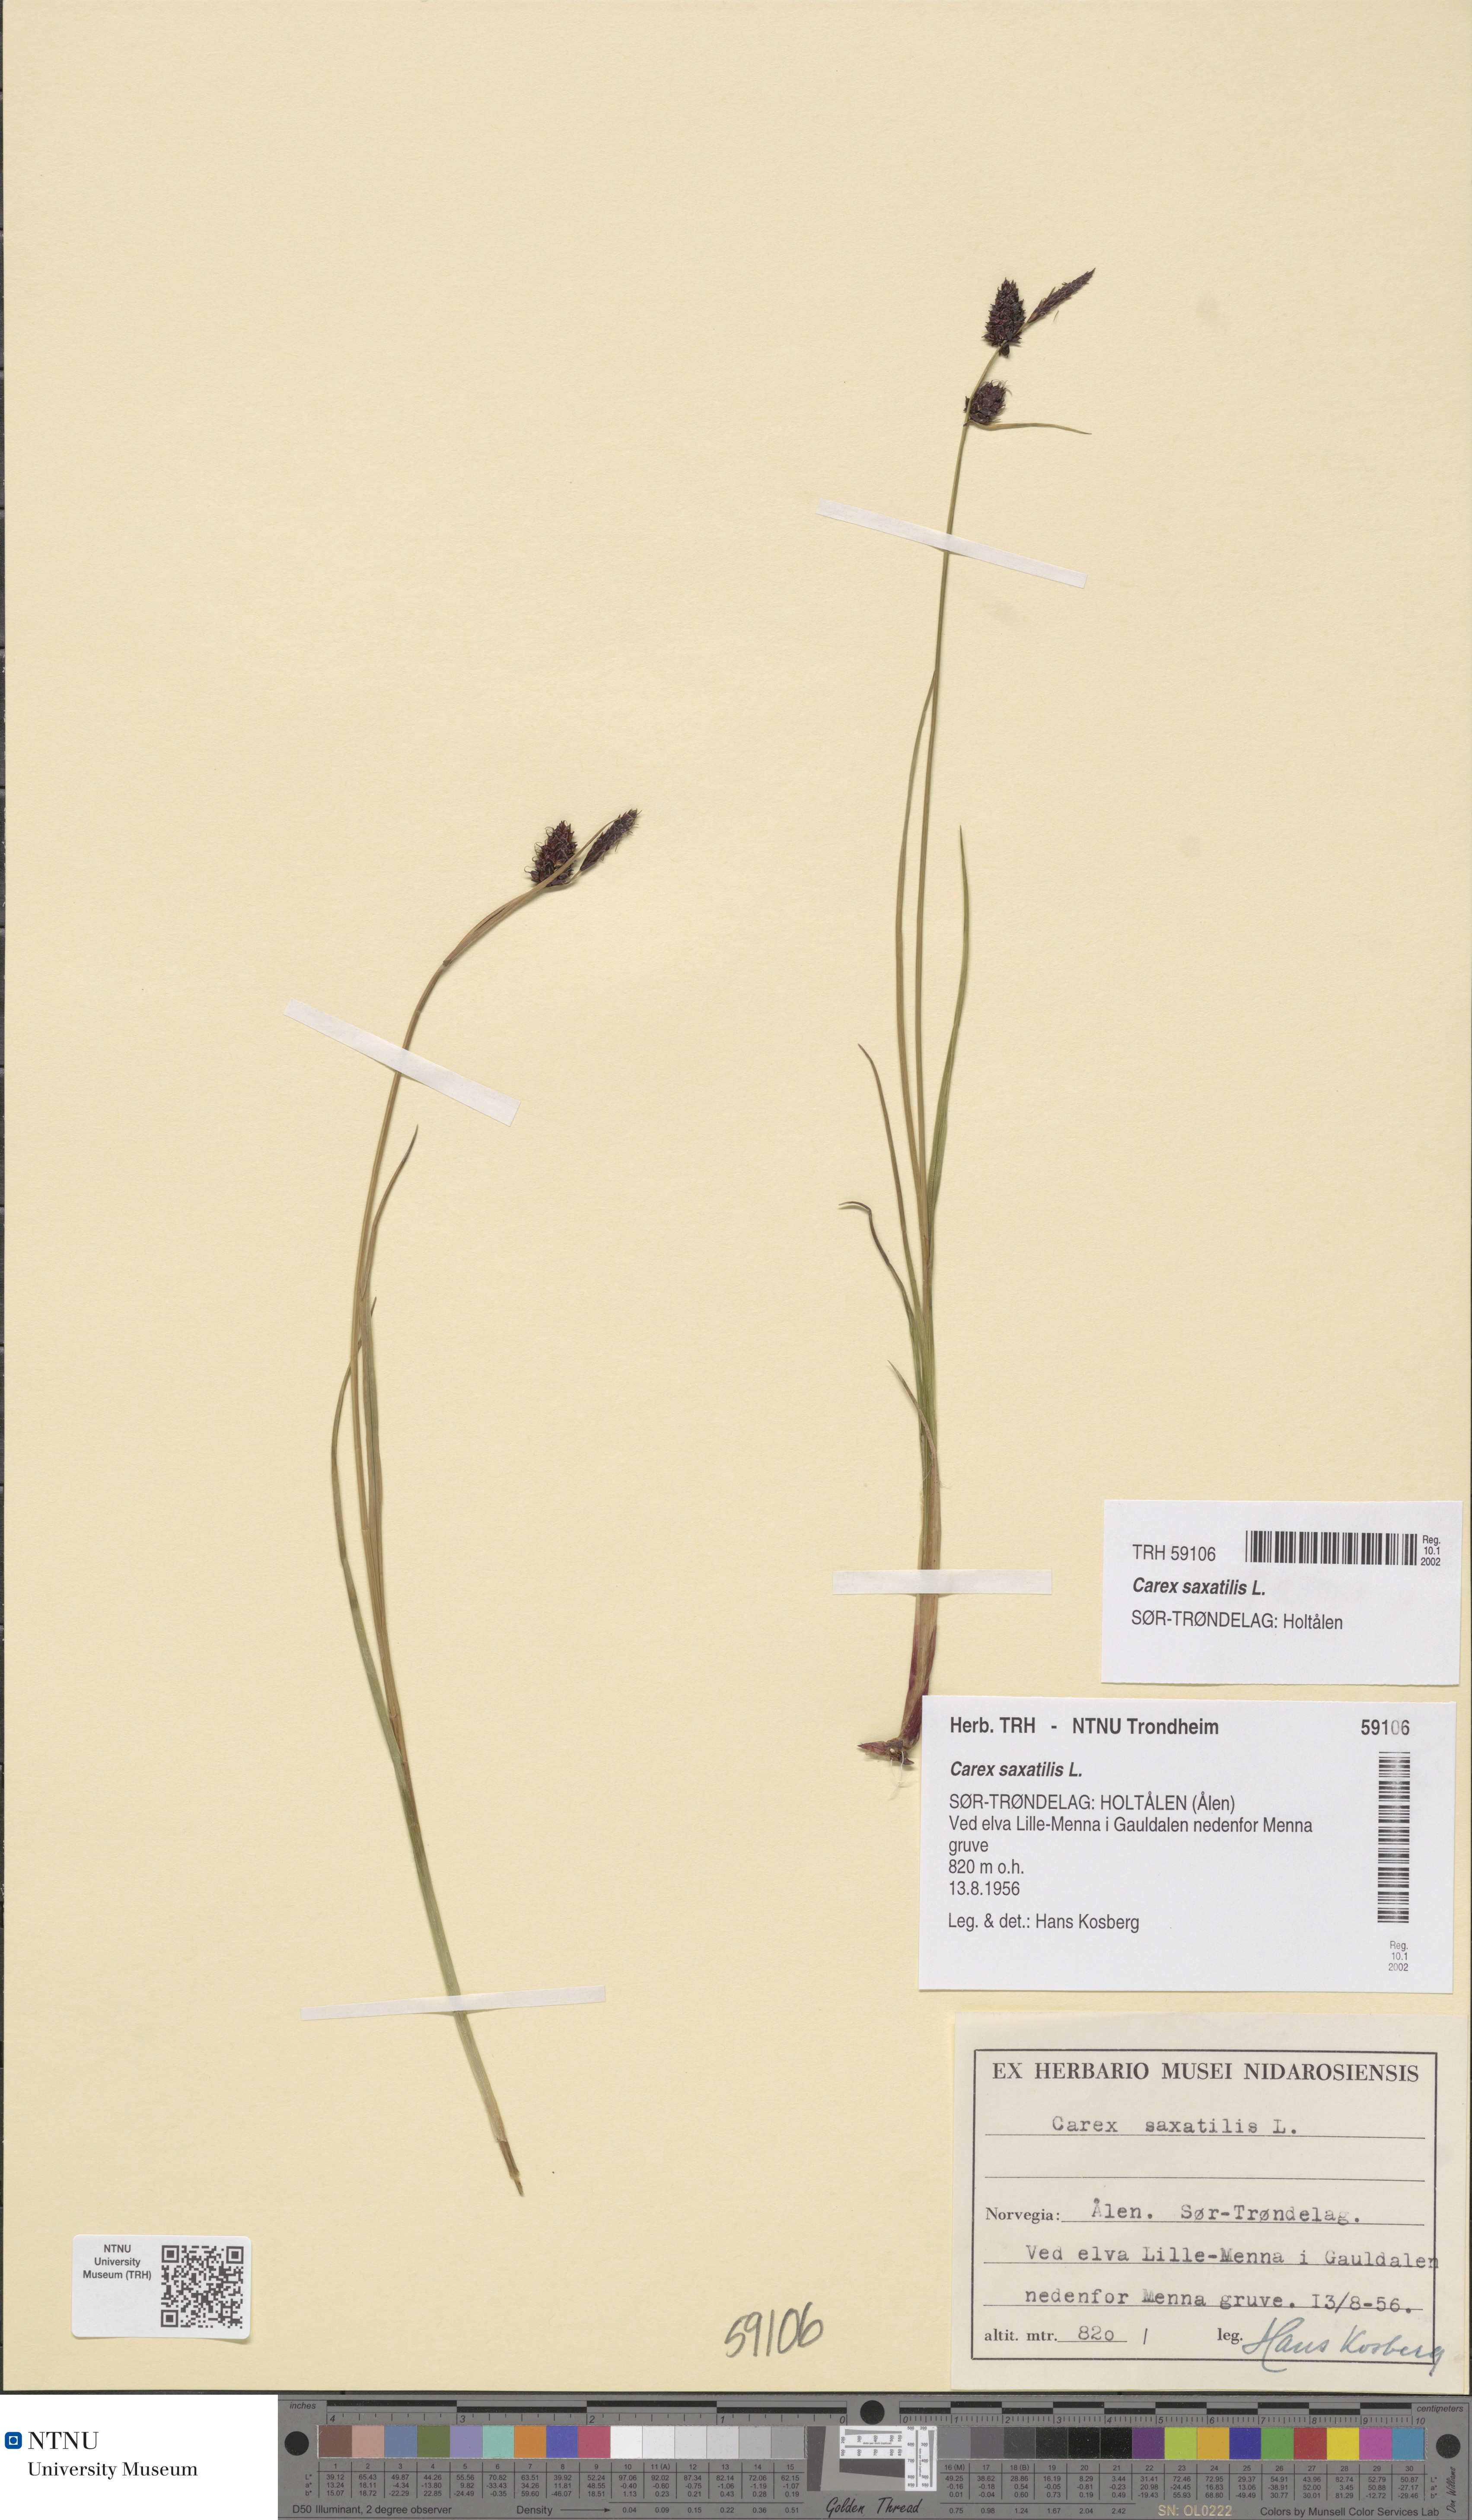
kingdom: Plantae
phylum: Tracheophyta
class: Liliopsida
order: Poales
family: Cyperaceae
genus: Carex
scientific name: Carex saxatilis
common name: Russet sedge
